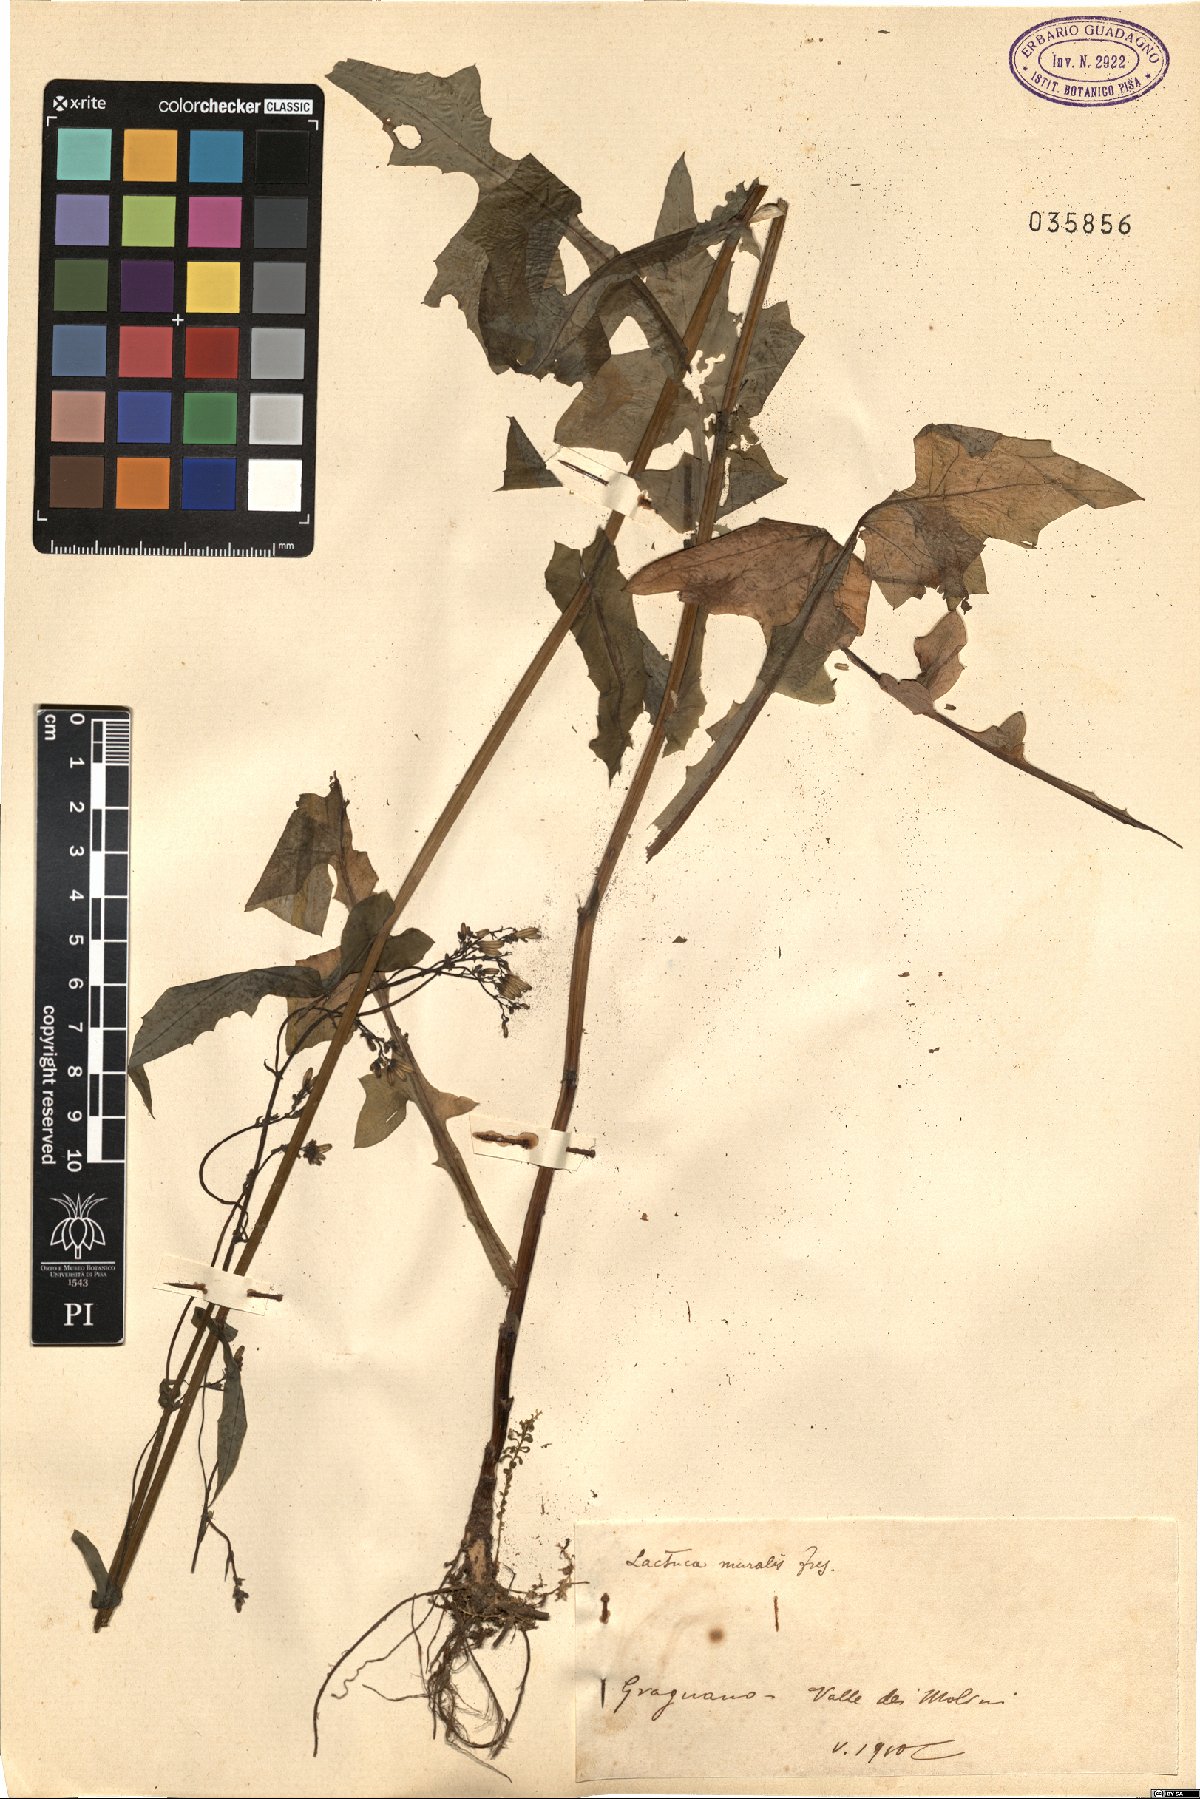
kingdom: Plantae
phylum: Tracheophyta
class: Magnoliopsida
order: Asterales
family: Asteraceae
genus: Mycelis
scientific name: Mycelis muralis
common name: Wall lettuce
